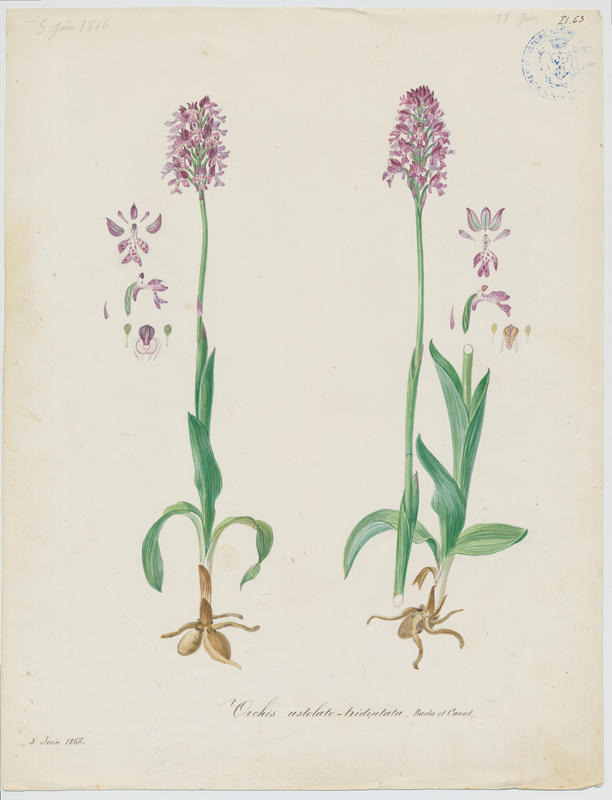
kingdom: Plantae
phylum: Tracheophyta
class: Liliopsida
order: Asparagales
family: Orchidaceae
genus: Neotinea
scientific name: Neotinea dietrichiana
